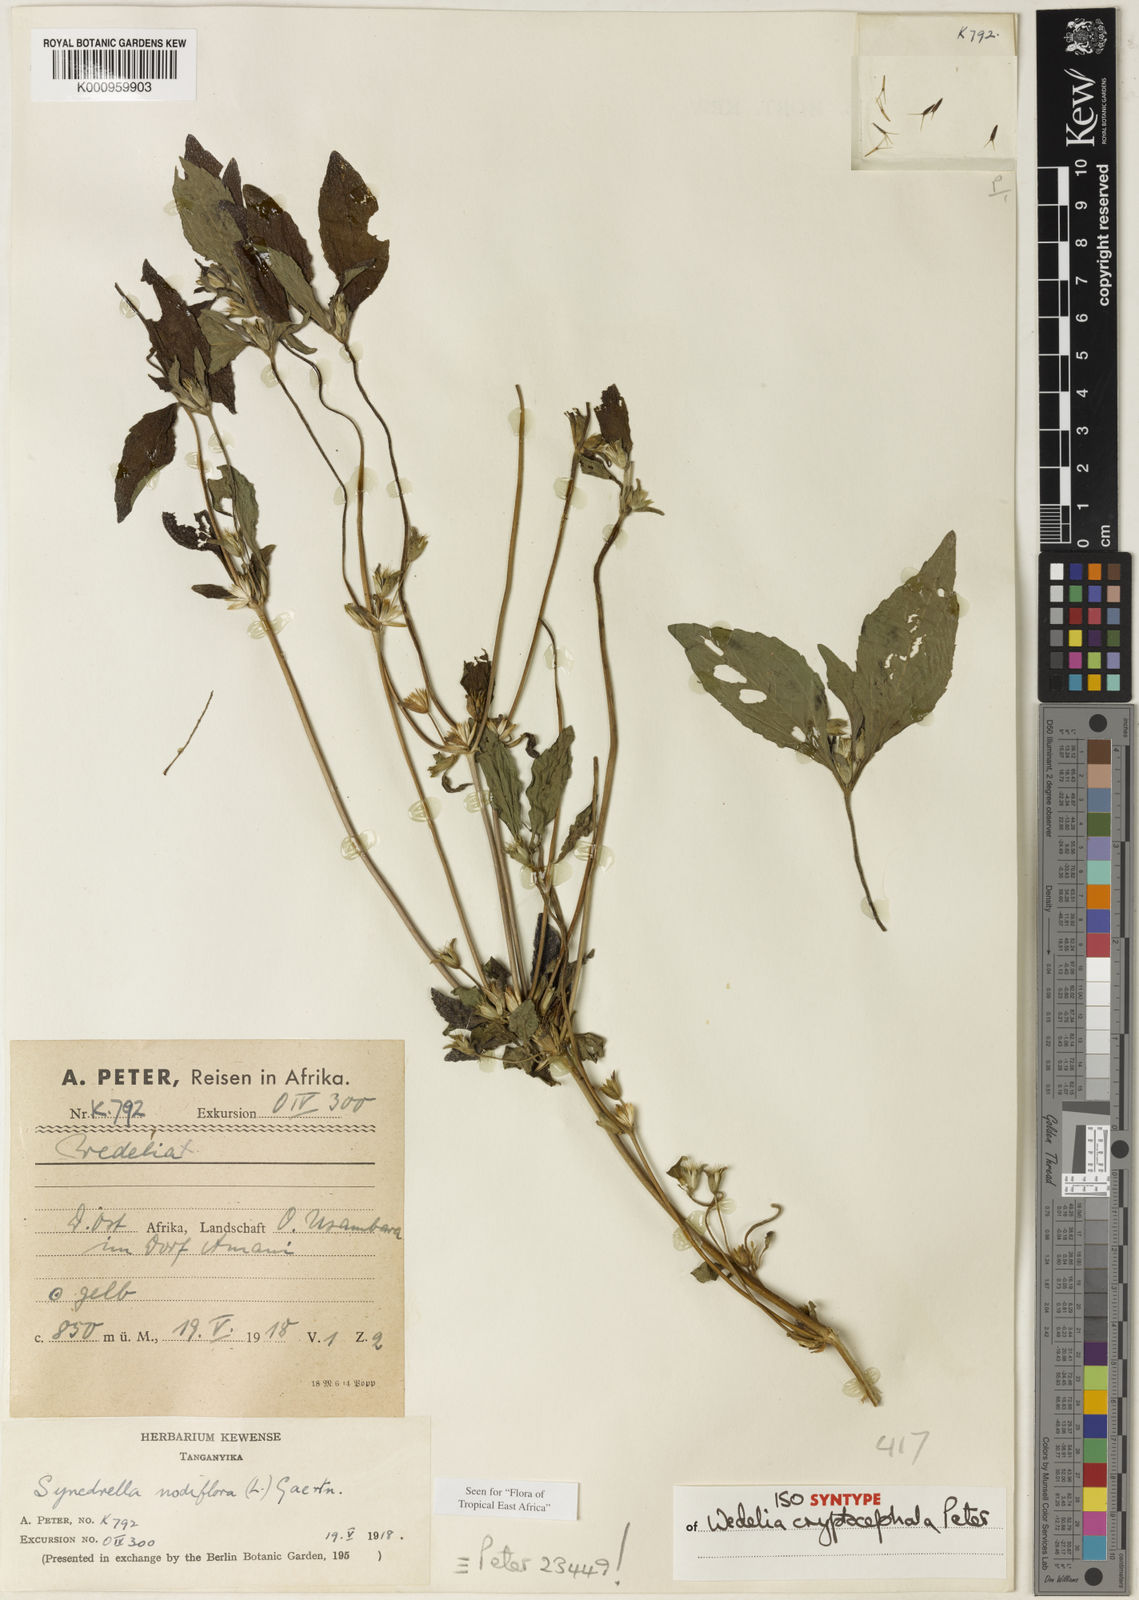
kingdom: Plantae
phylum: Tracheophyta
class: Magnoliopsida
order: Asterales
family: Asteraceae
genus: Synedrella
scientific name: Synedrella nodiflora
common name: Nodeweed
